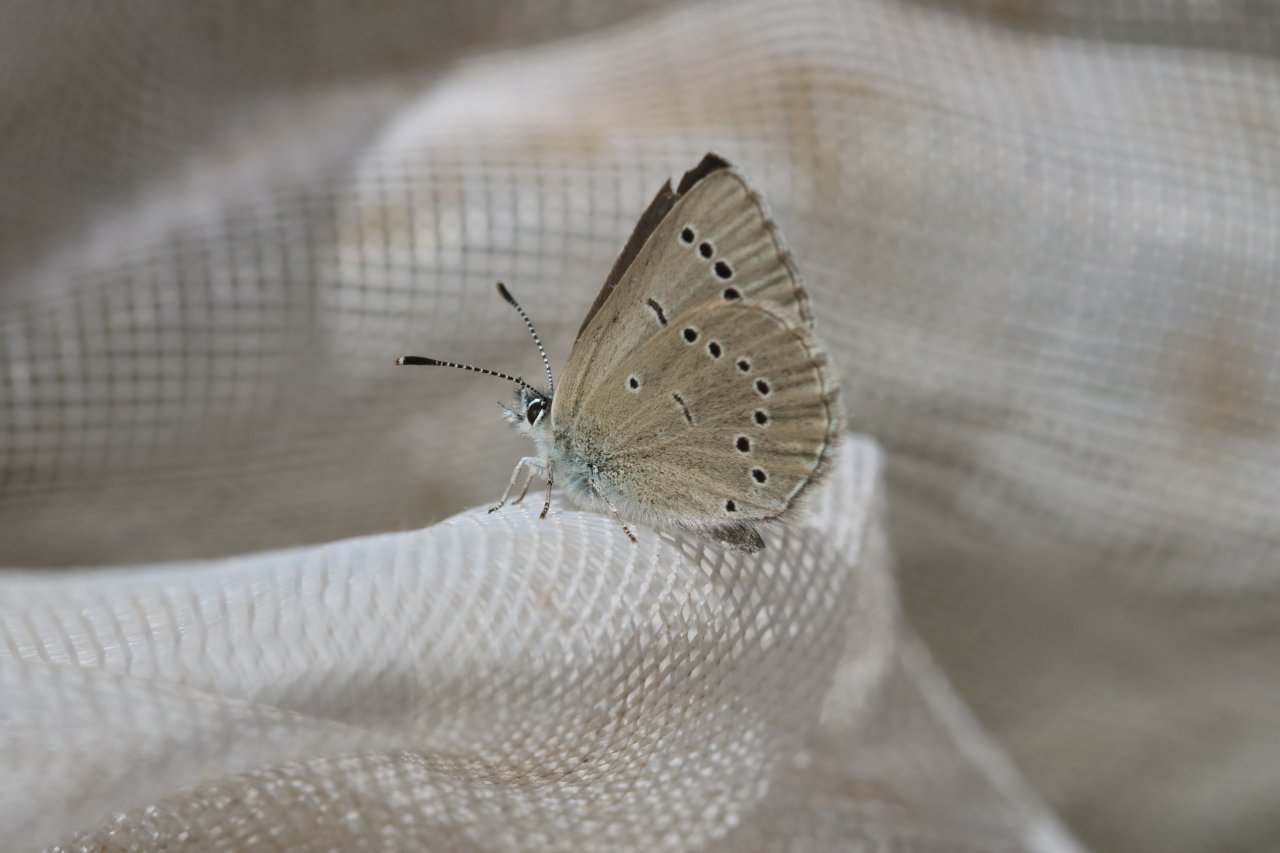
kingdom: Animalia
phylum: Arthropoda
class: Insecta
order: Lepidoptera
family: Lycaenidae
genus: Glaucopsyche
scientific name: Glaucopsyche lygdamus
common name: Silvery Blue
